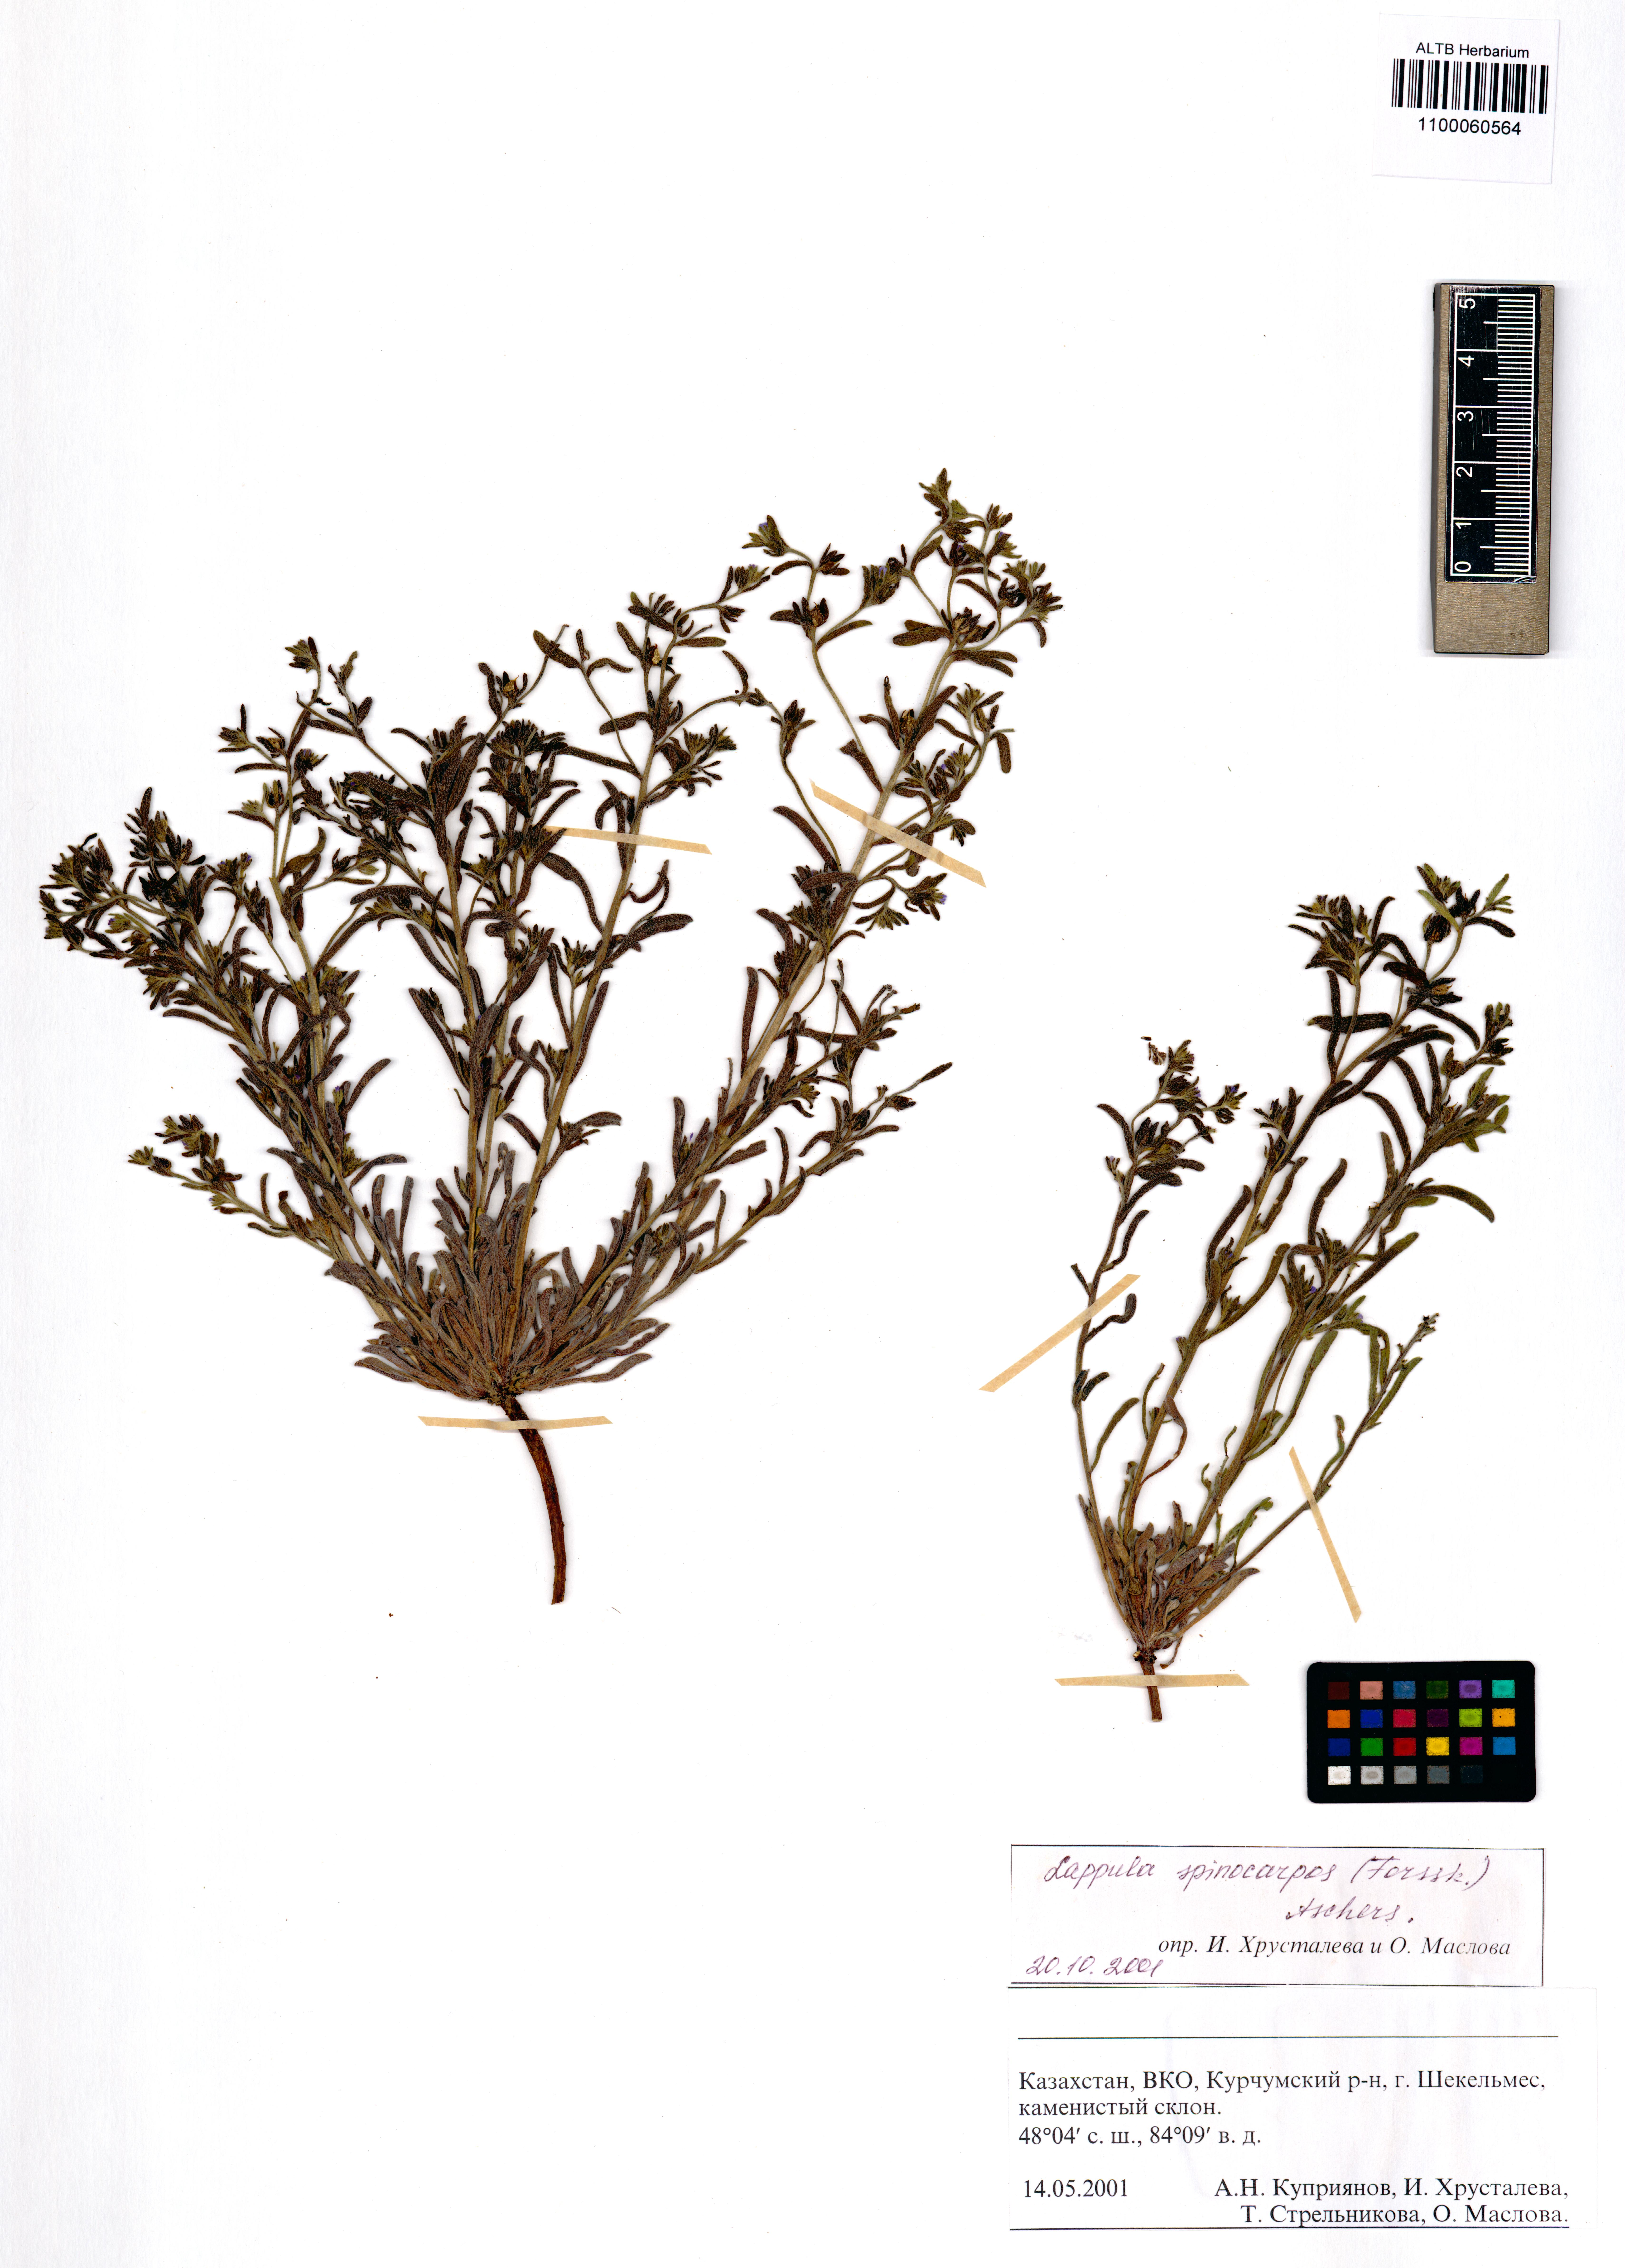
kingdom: Plantae
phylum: Tracheophyta
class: Magnoliopsida
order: Boraginales
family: Boraginaceae
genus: Lappula
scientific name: Lappula spinocarpos
